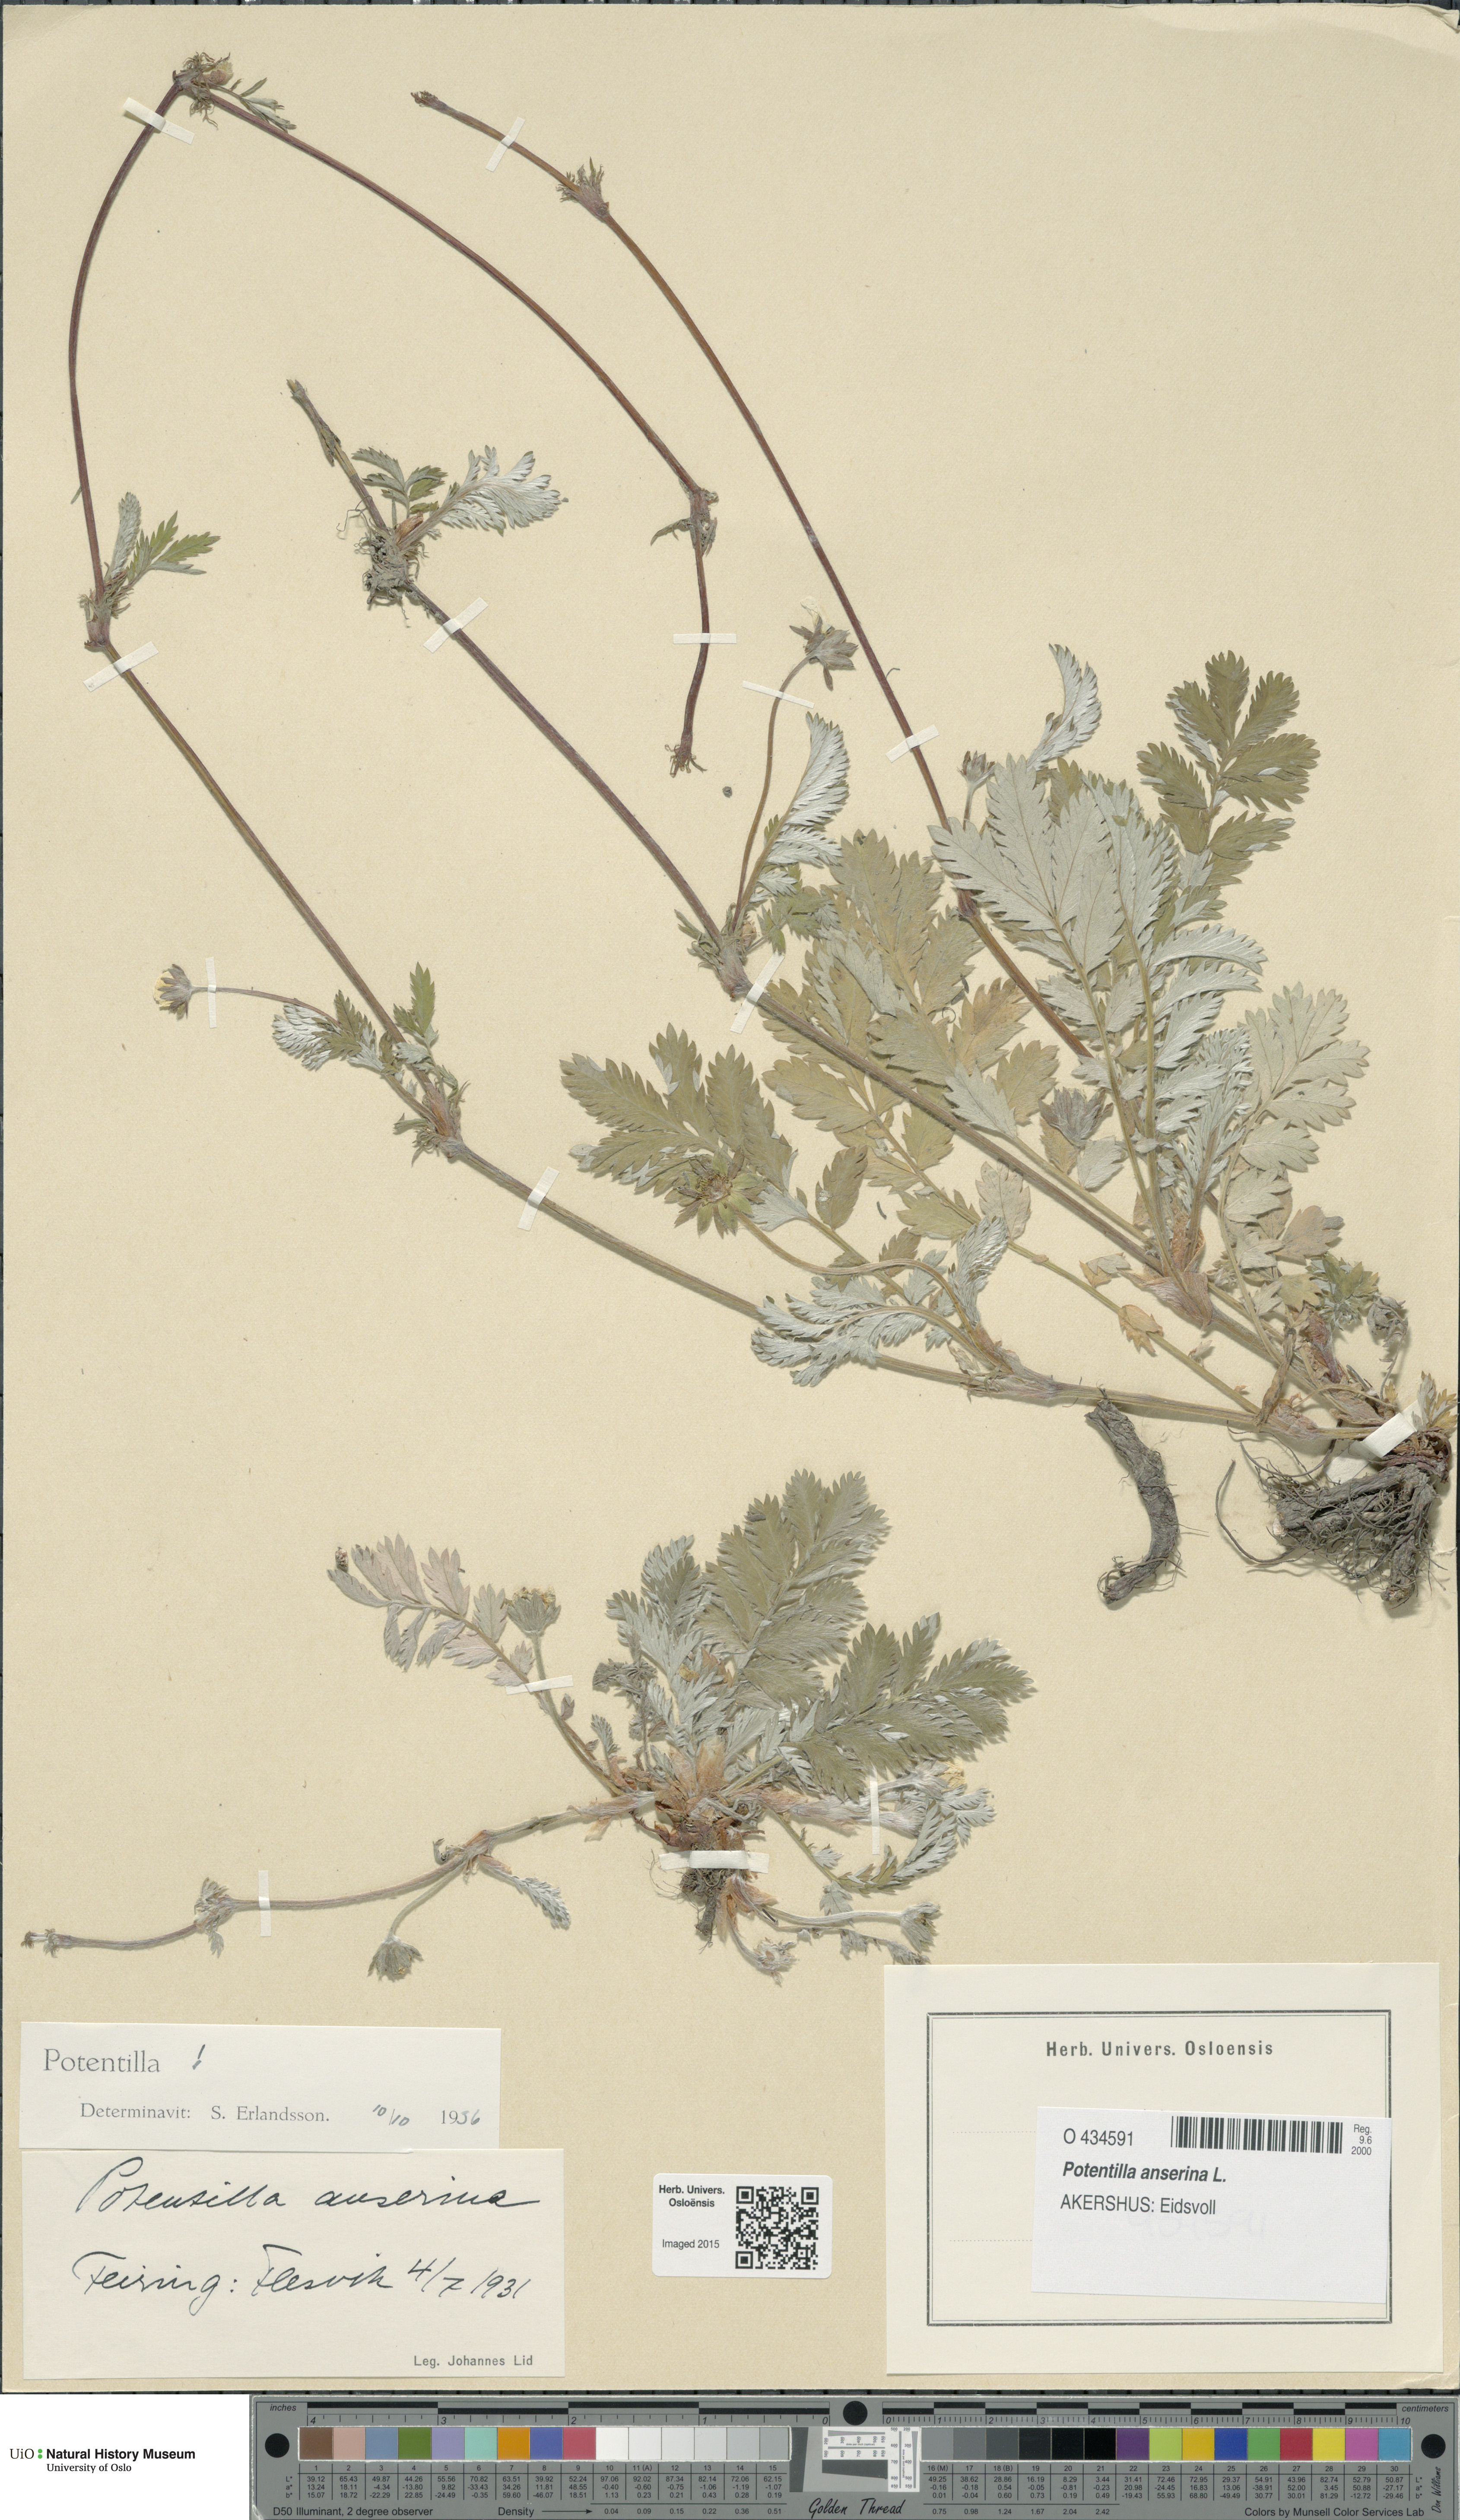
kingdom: Plantae
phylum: Tracheophyta
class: Magnoliopsida
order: Rosales
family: Rosaceae
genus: Argentina
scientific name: Argentina anserina
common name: Common silverweed
